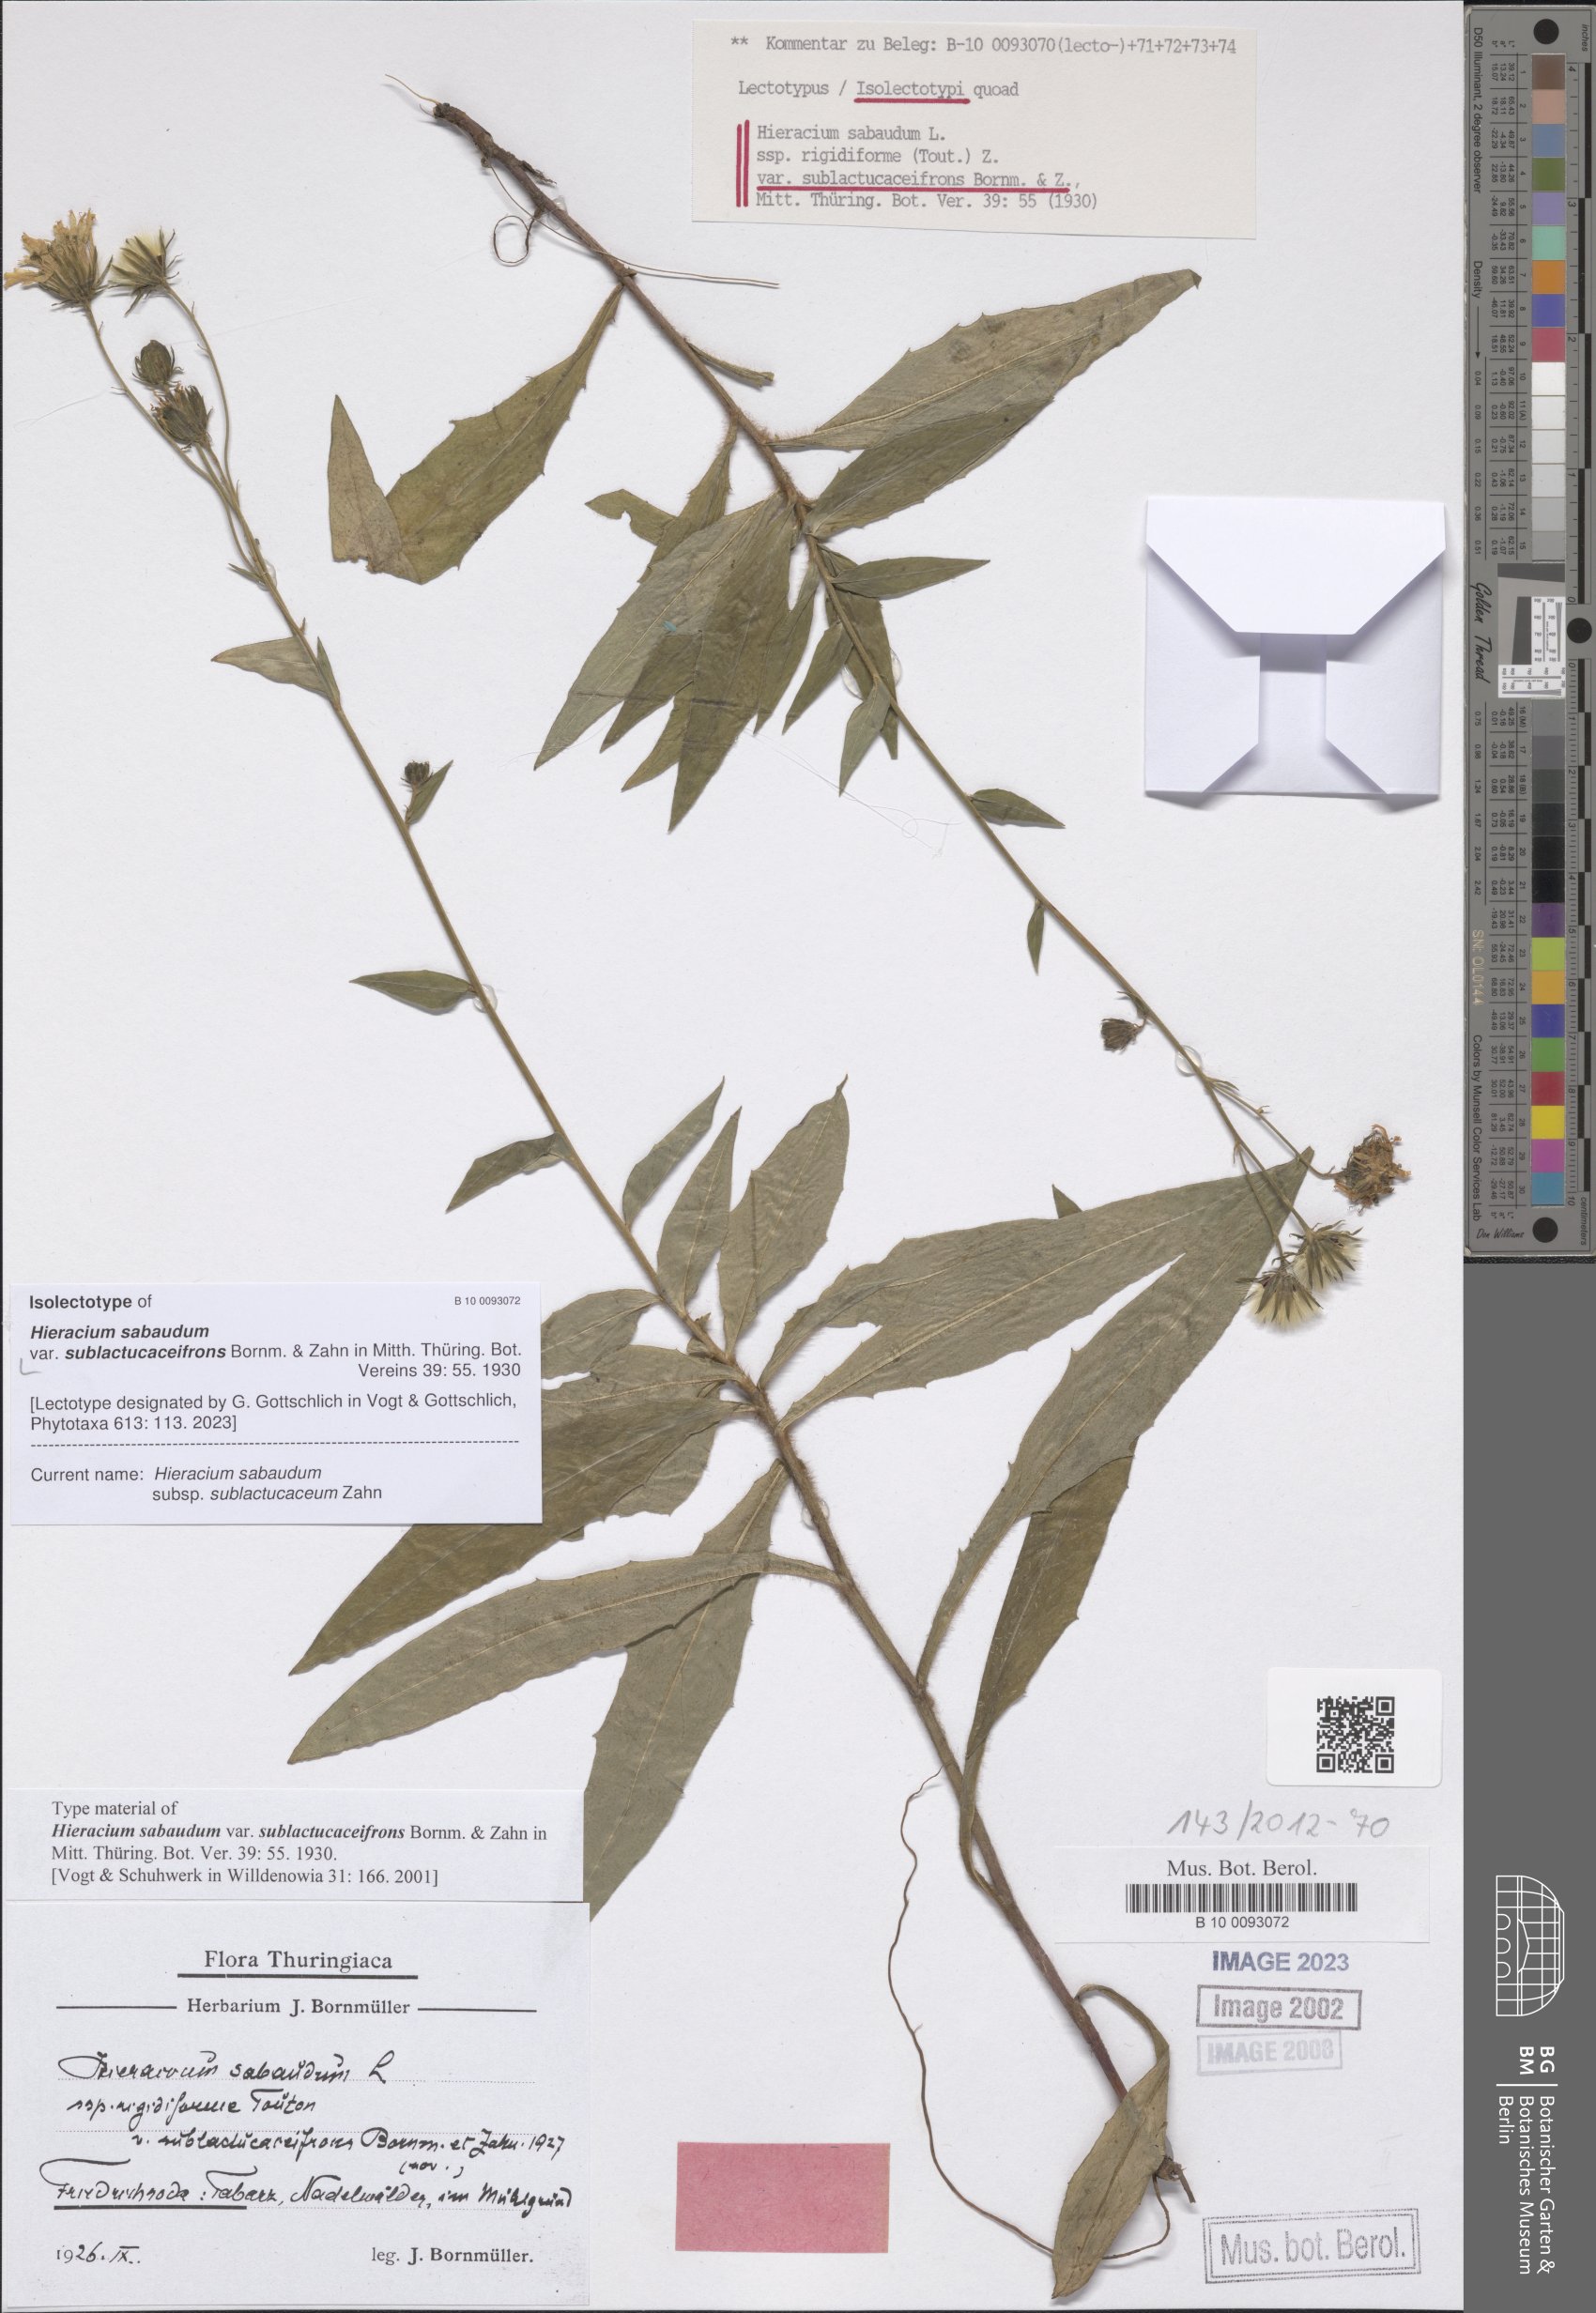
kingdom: Plantae
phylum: Tracheophyta
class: Magnoliopsida
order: Asterales
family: Asteraceae
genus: Hieracium
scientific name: Hieracium sabaudum
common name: New england hawkweed
